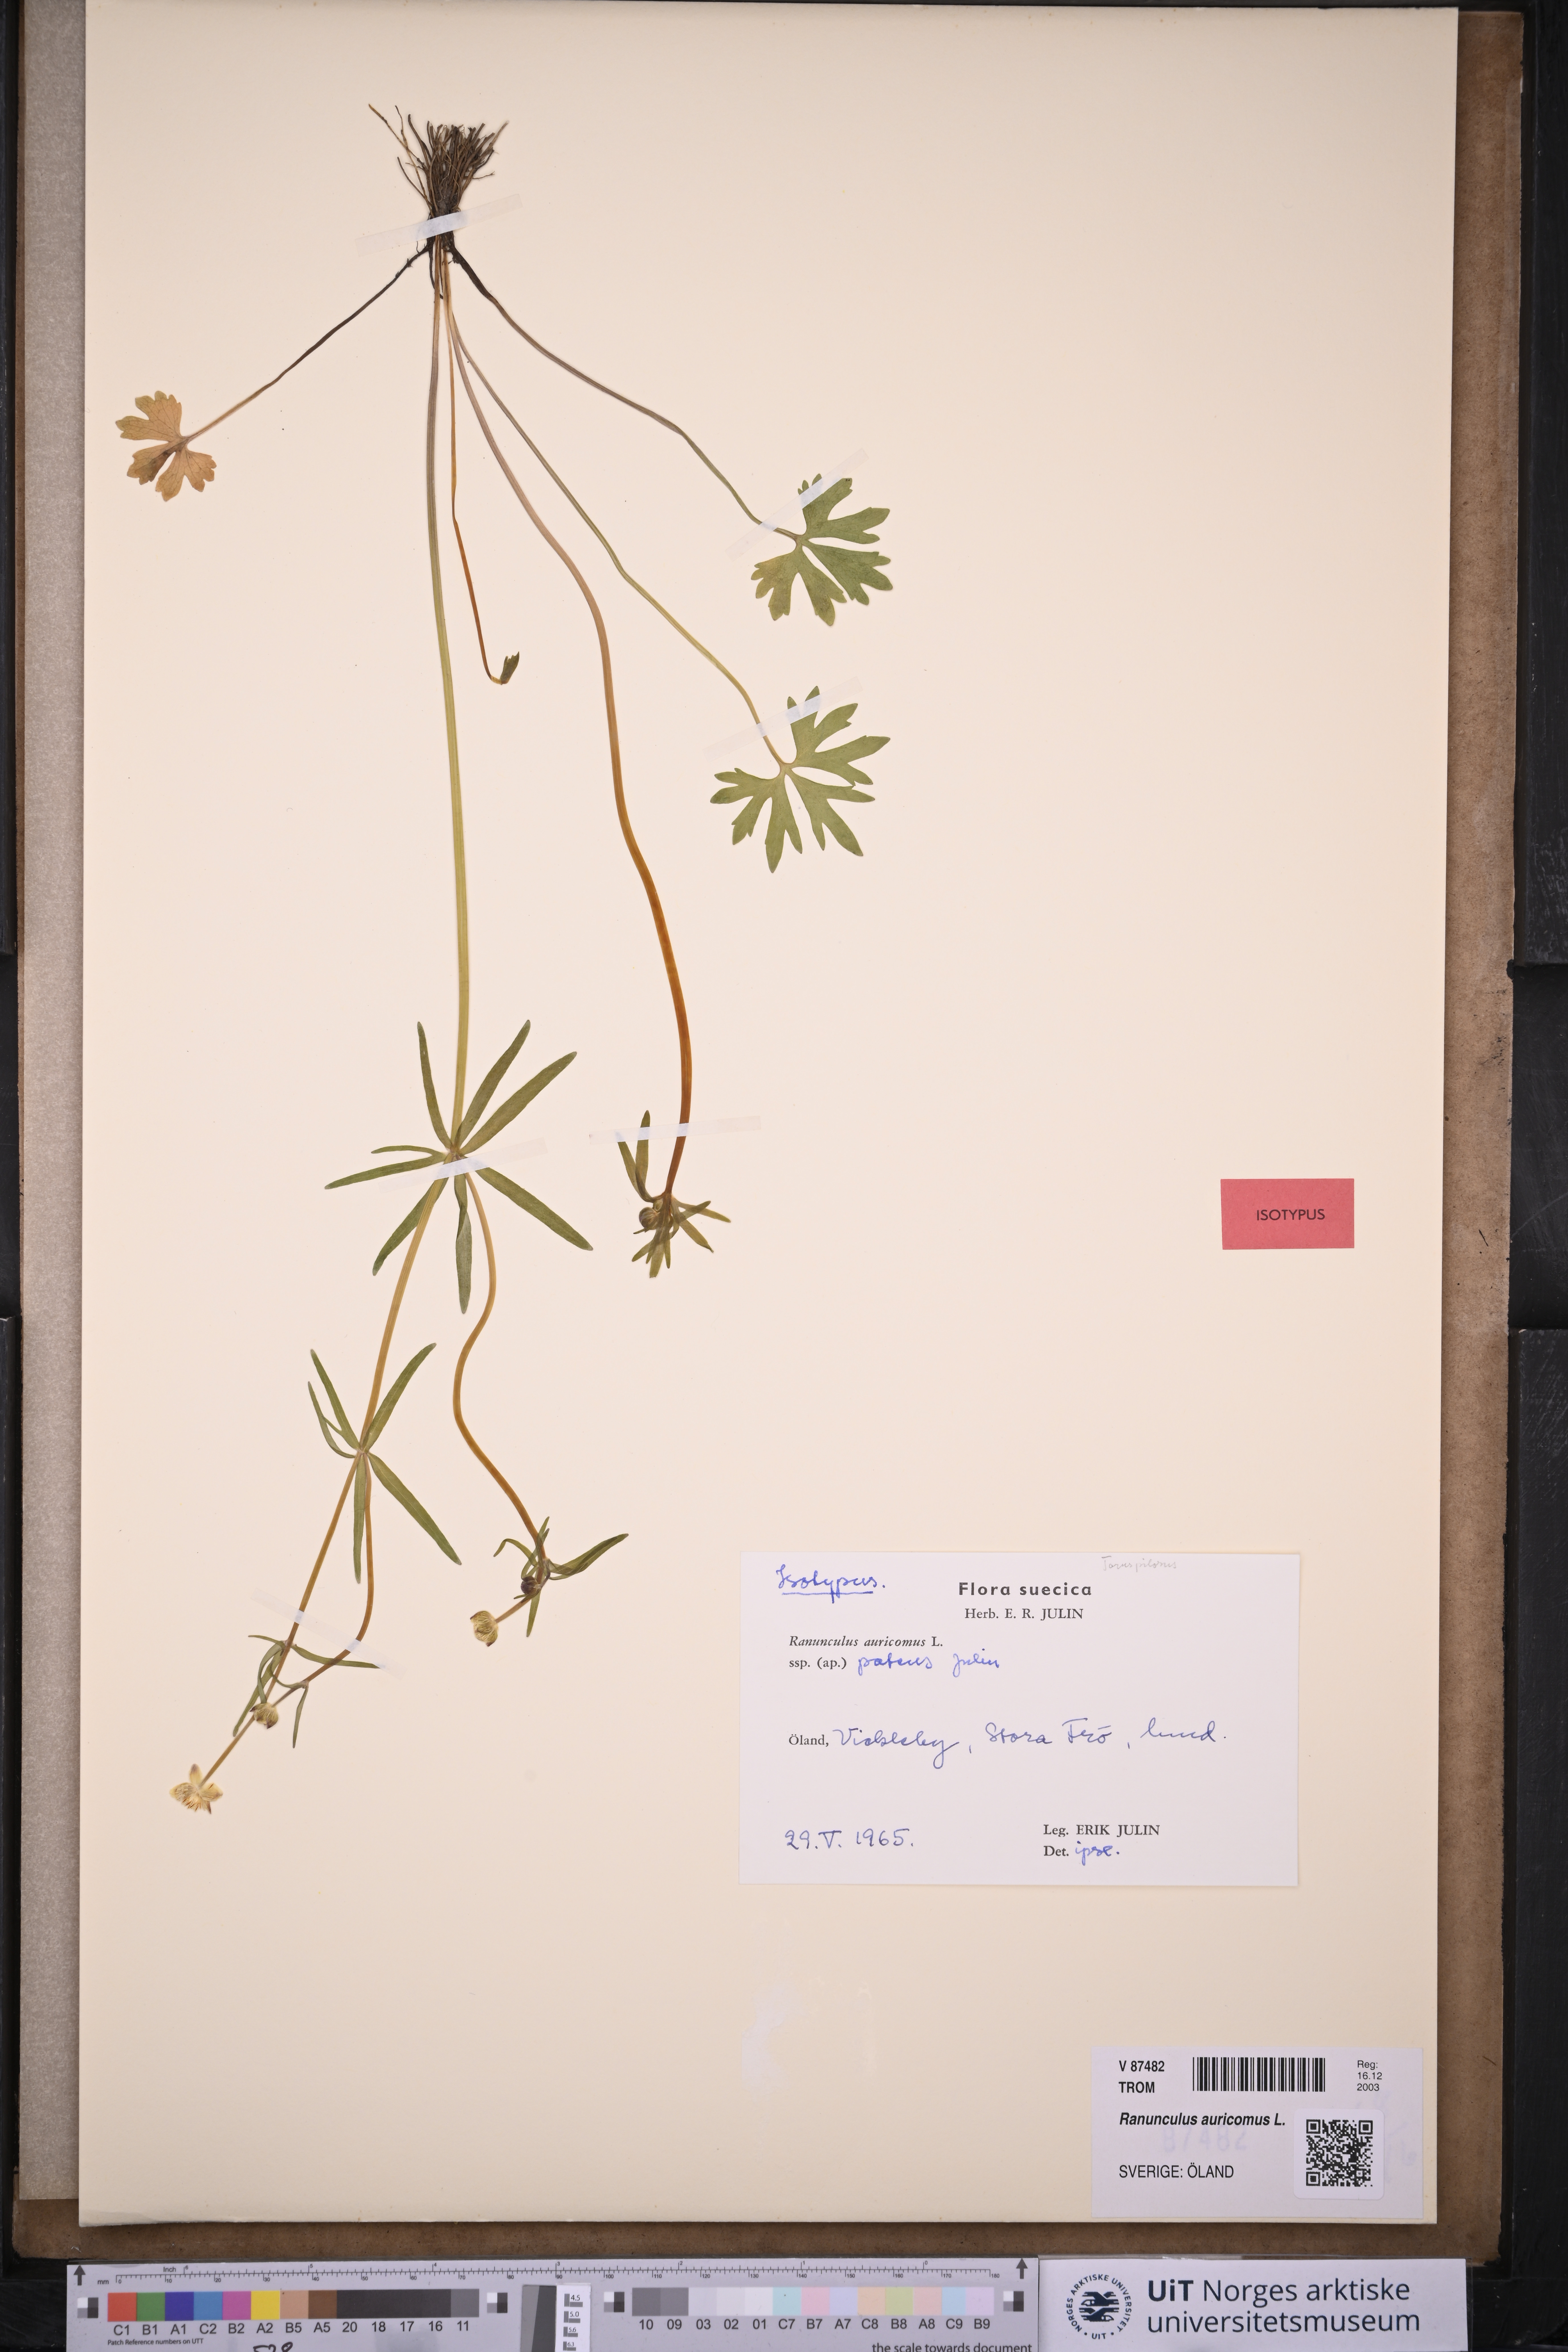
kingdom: Plantae
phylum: Tracheophyta
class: Magnoliopsida
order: Ranunculales
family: Ranunculaceae
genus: Ranunculus
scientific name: Ranunculus auricomus
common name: Goldilocks buttercup
